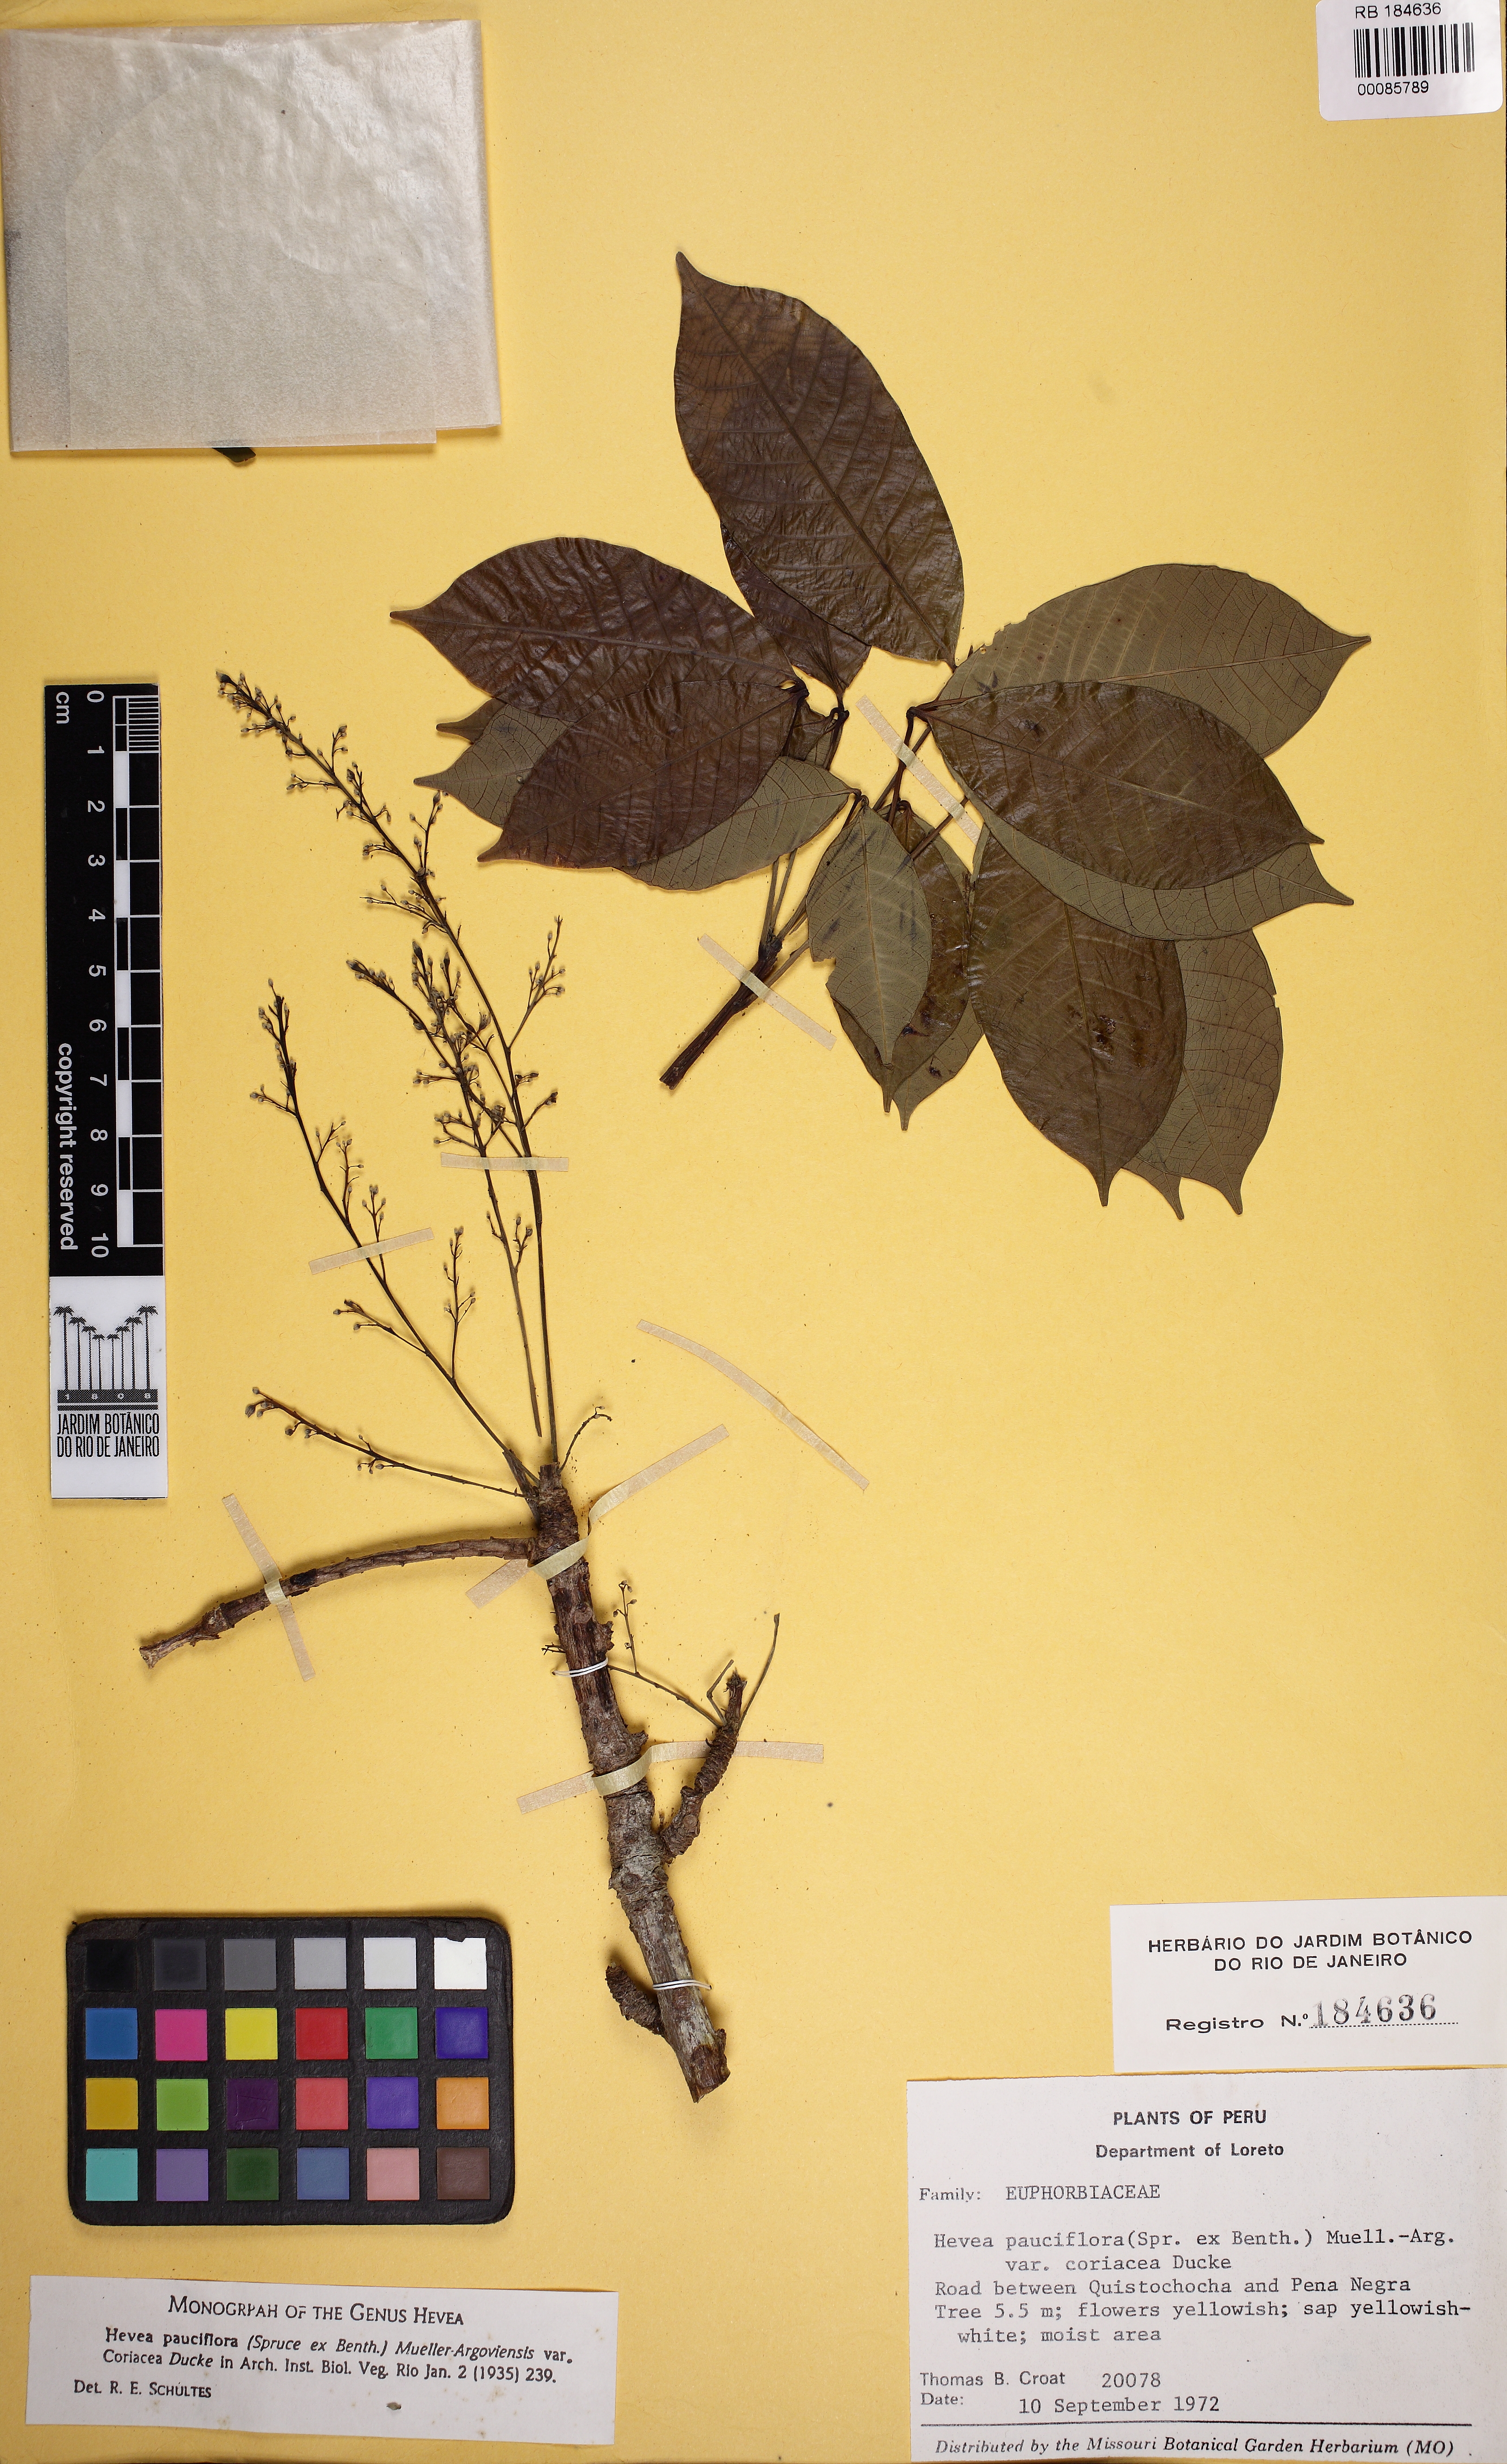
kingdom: Plantae
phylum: Tracheophyta
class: Magnoliopsida
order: Malpighiales
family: Euphorbiaceae
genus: Hevea
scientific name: Hevea pauciflora
